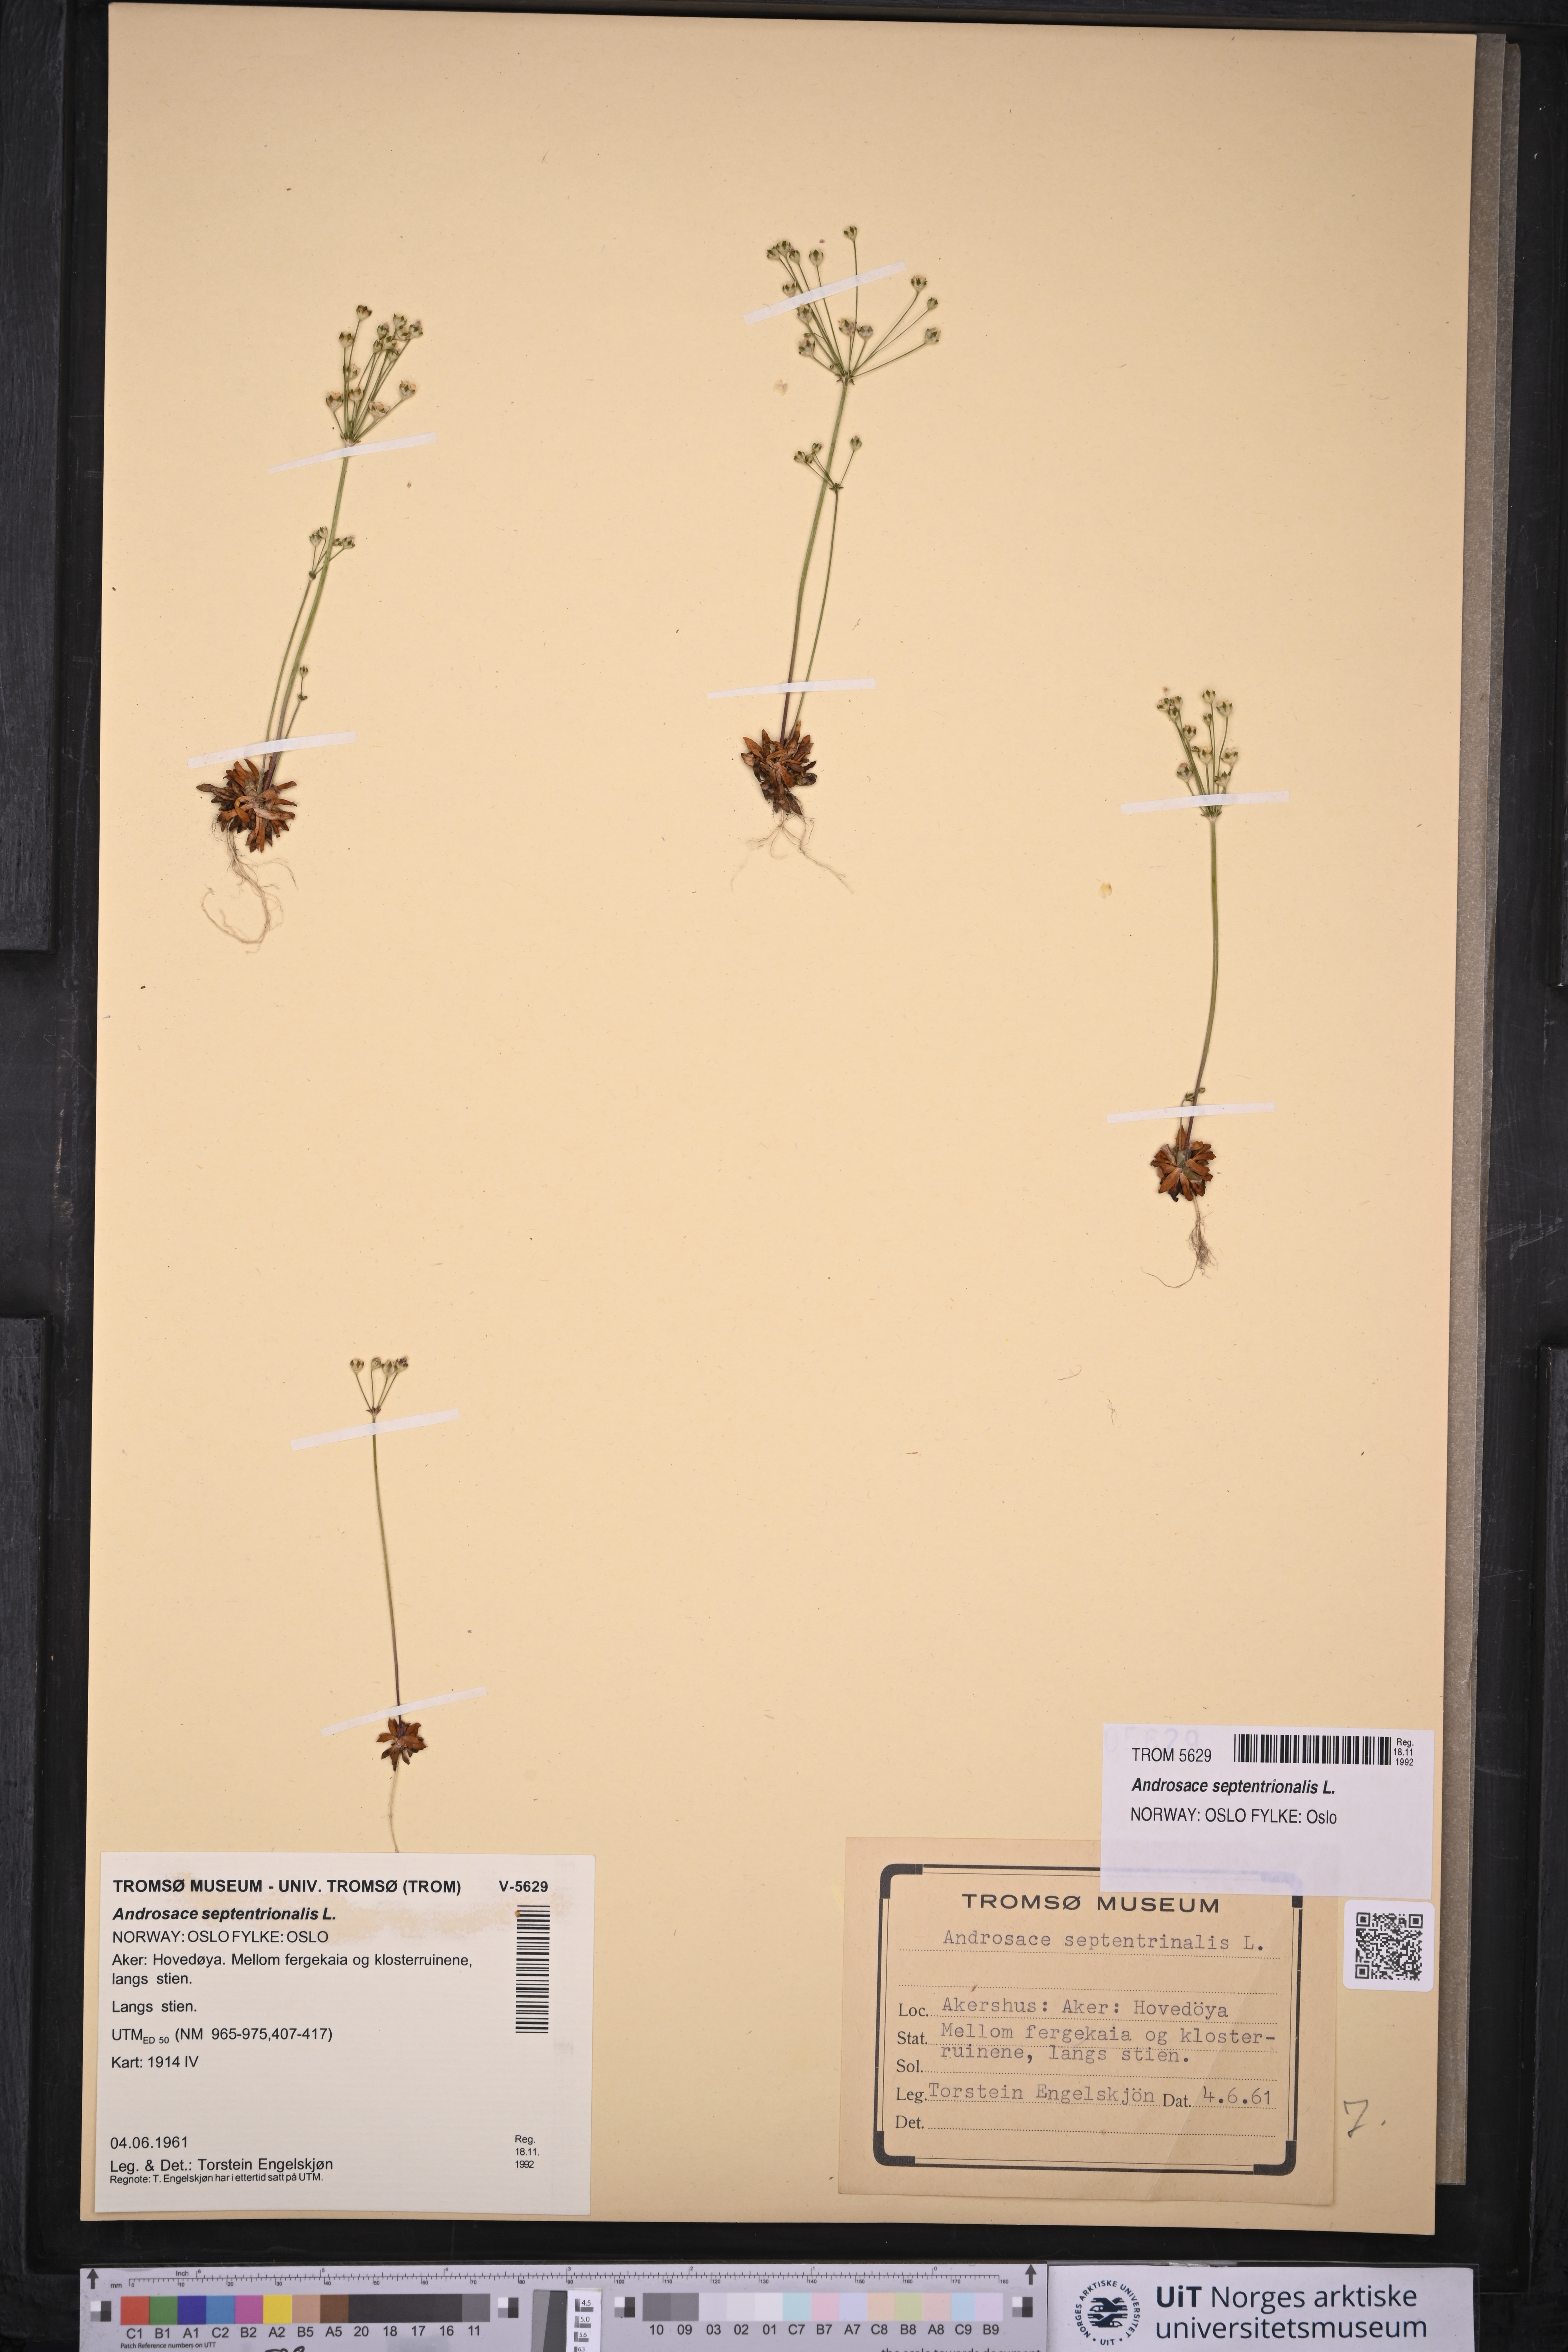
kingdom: Plantae
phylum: Tracheophyta
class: Magnoliopsida
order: Ericales
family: Primulaceae
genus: Androsace
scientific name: Androsace septentrionalis
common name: Hairy northern fairy-candelabra
